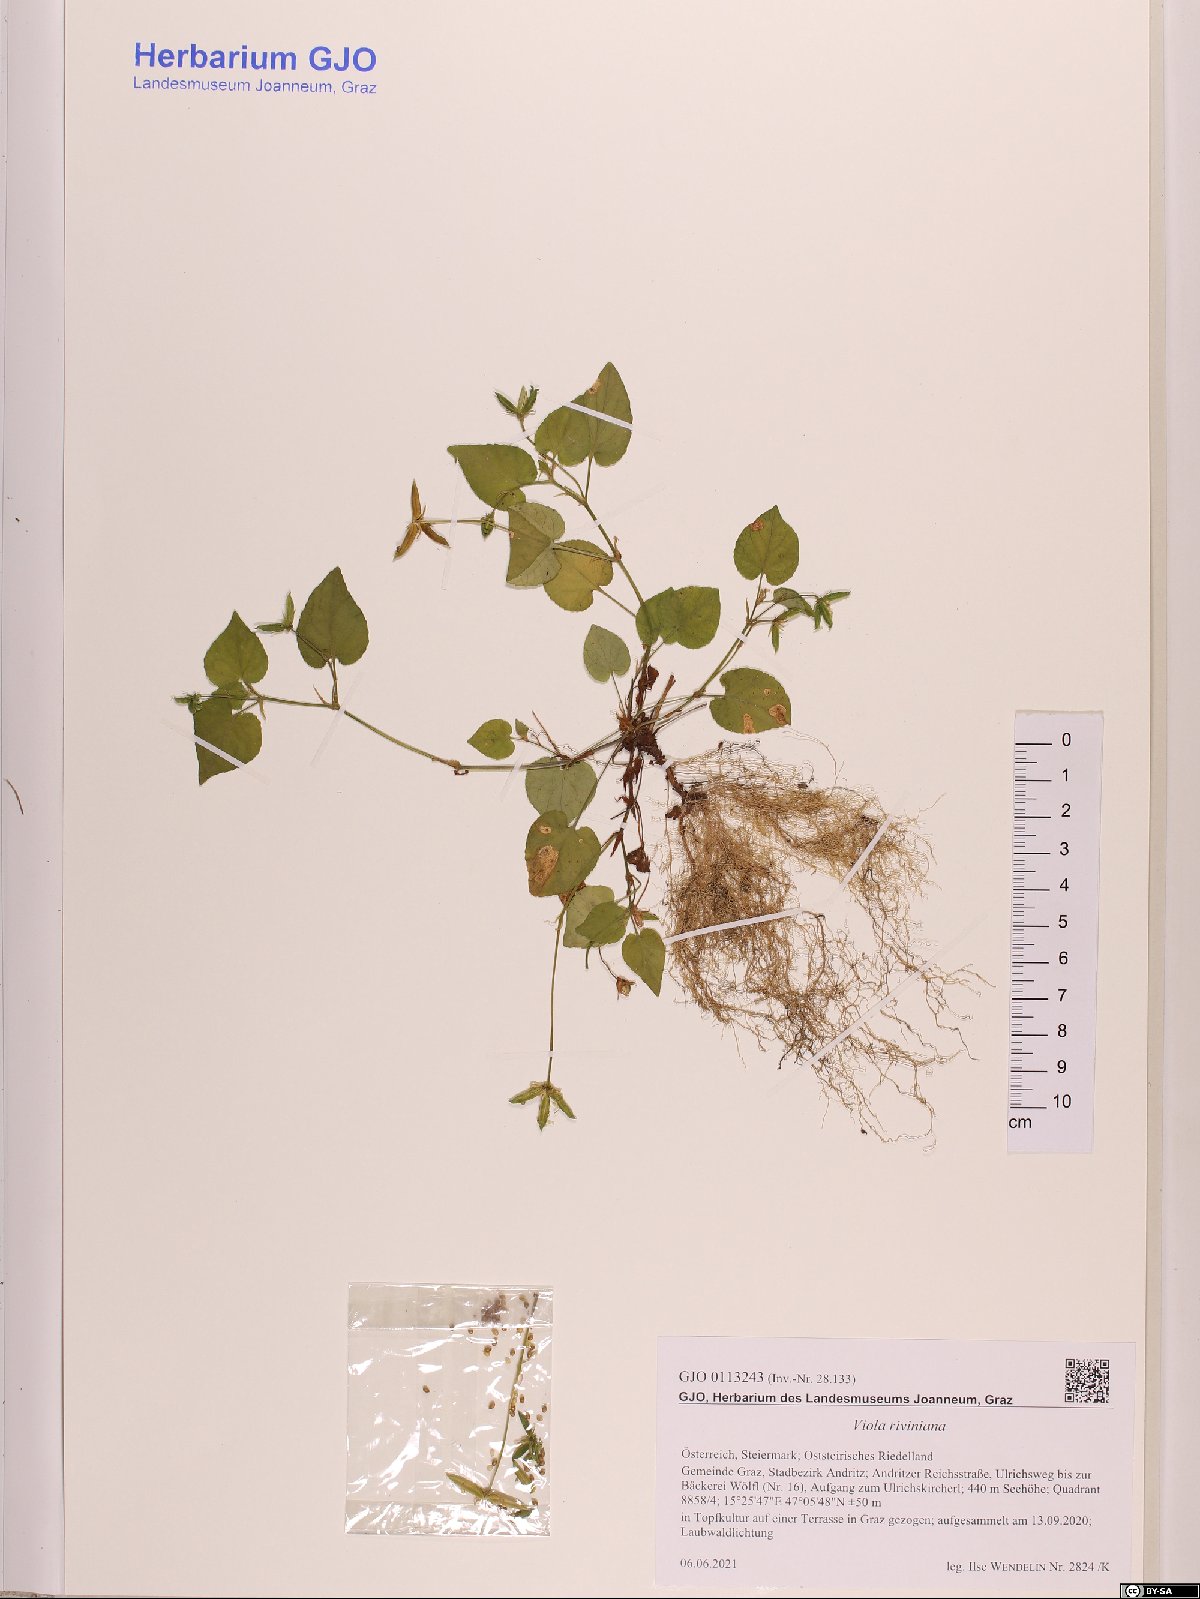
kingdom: Plantae
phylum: Tracheophyta
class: Magnoliopsida
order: Malpighiales
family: Violaceae
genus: Viola
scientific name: Viola riviniana
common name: Common dog-violet
